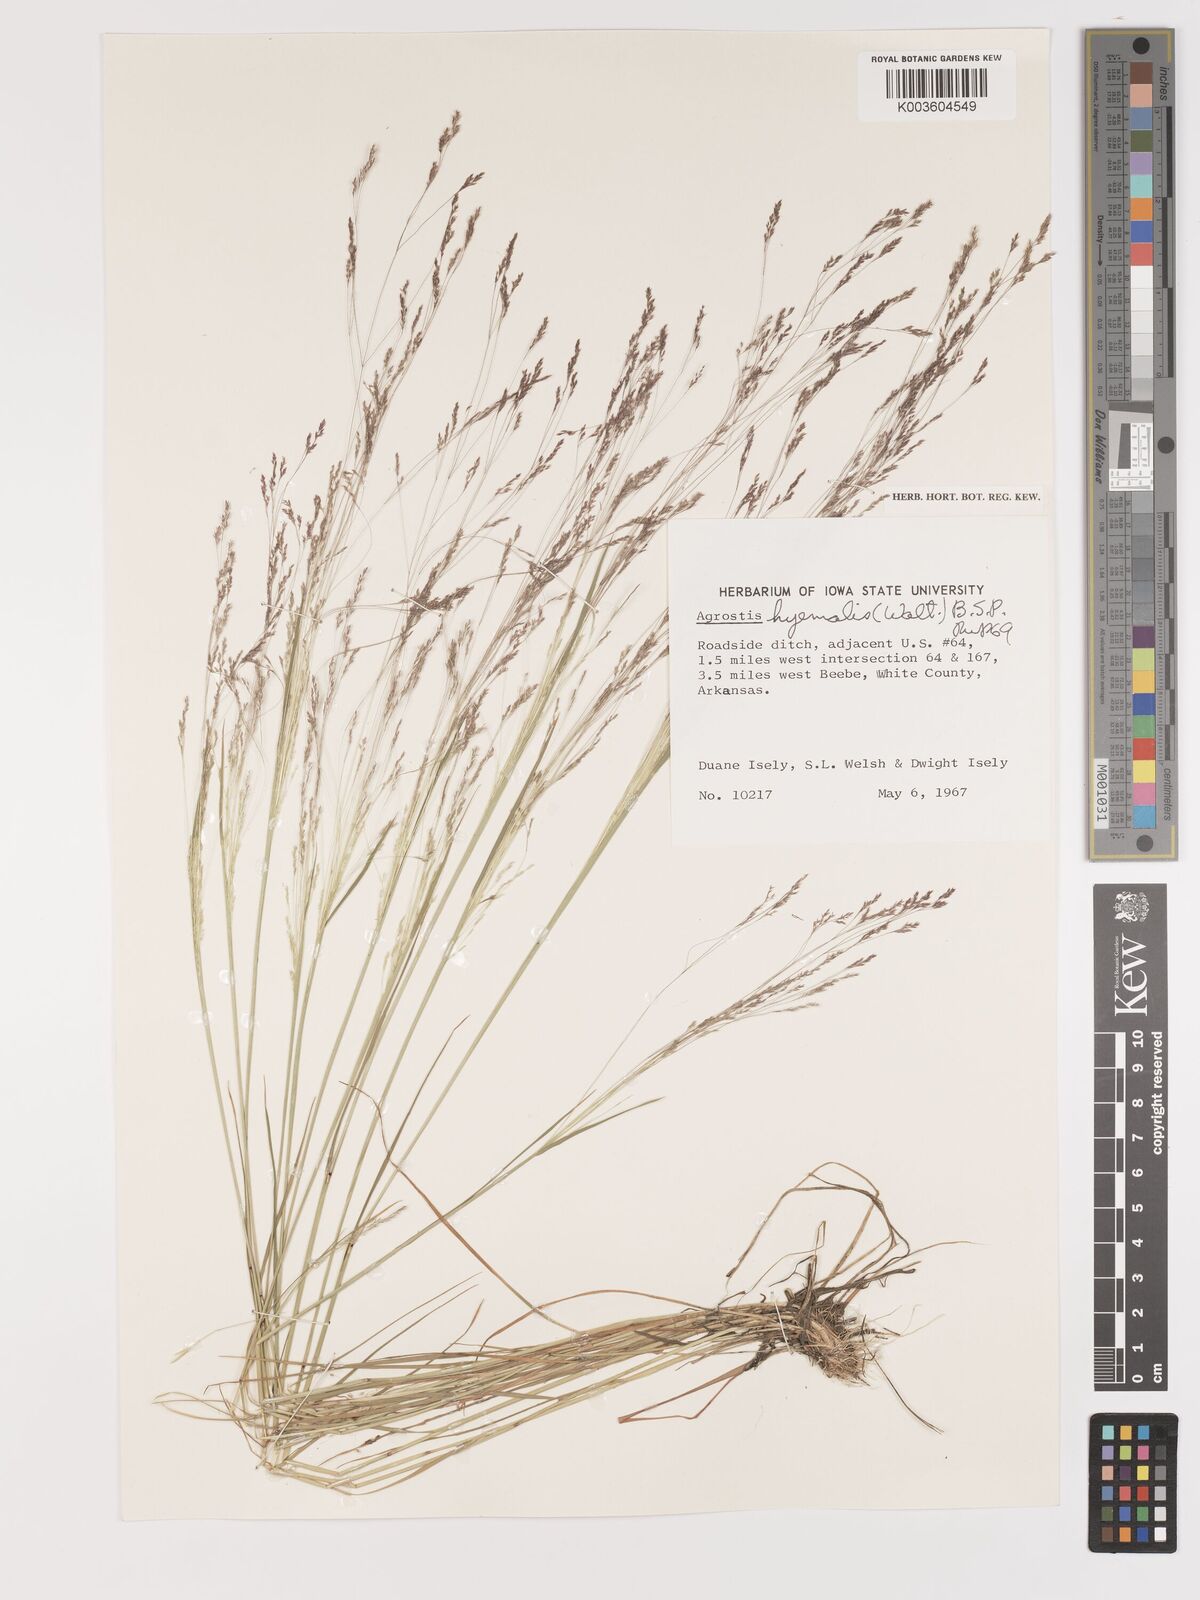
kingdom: Plantae
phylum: Tracheophyta
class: Liliopsida
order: Poales
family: Poaceae
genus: Agrostis
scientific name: Agrostis hyemalis
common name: Small bent
